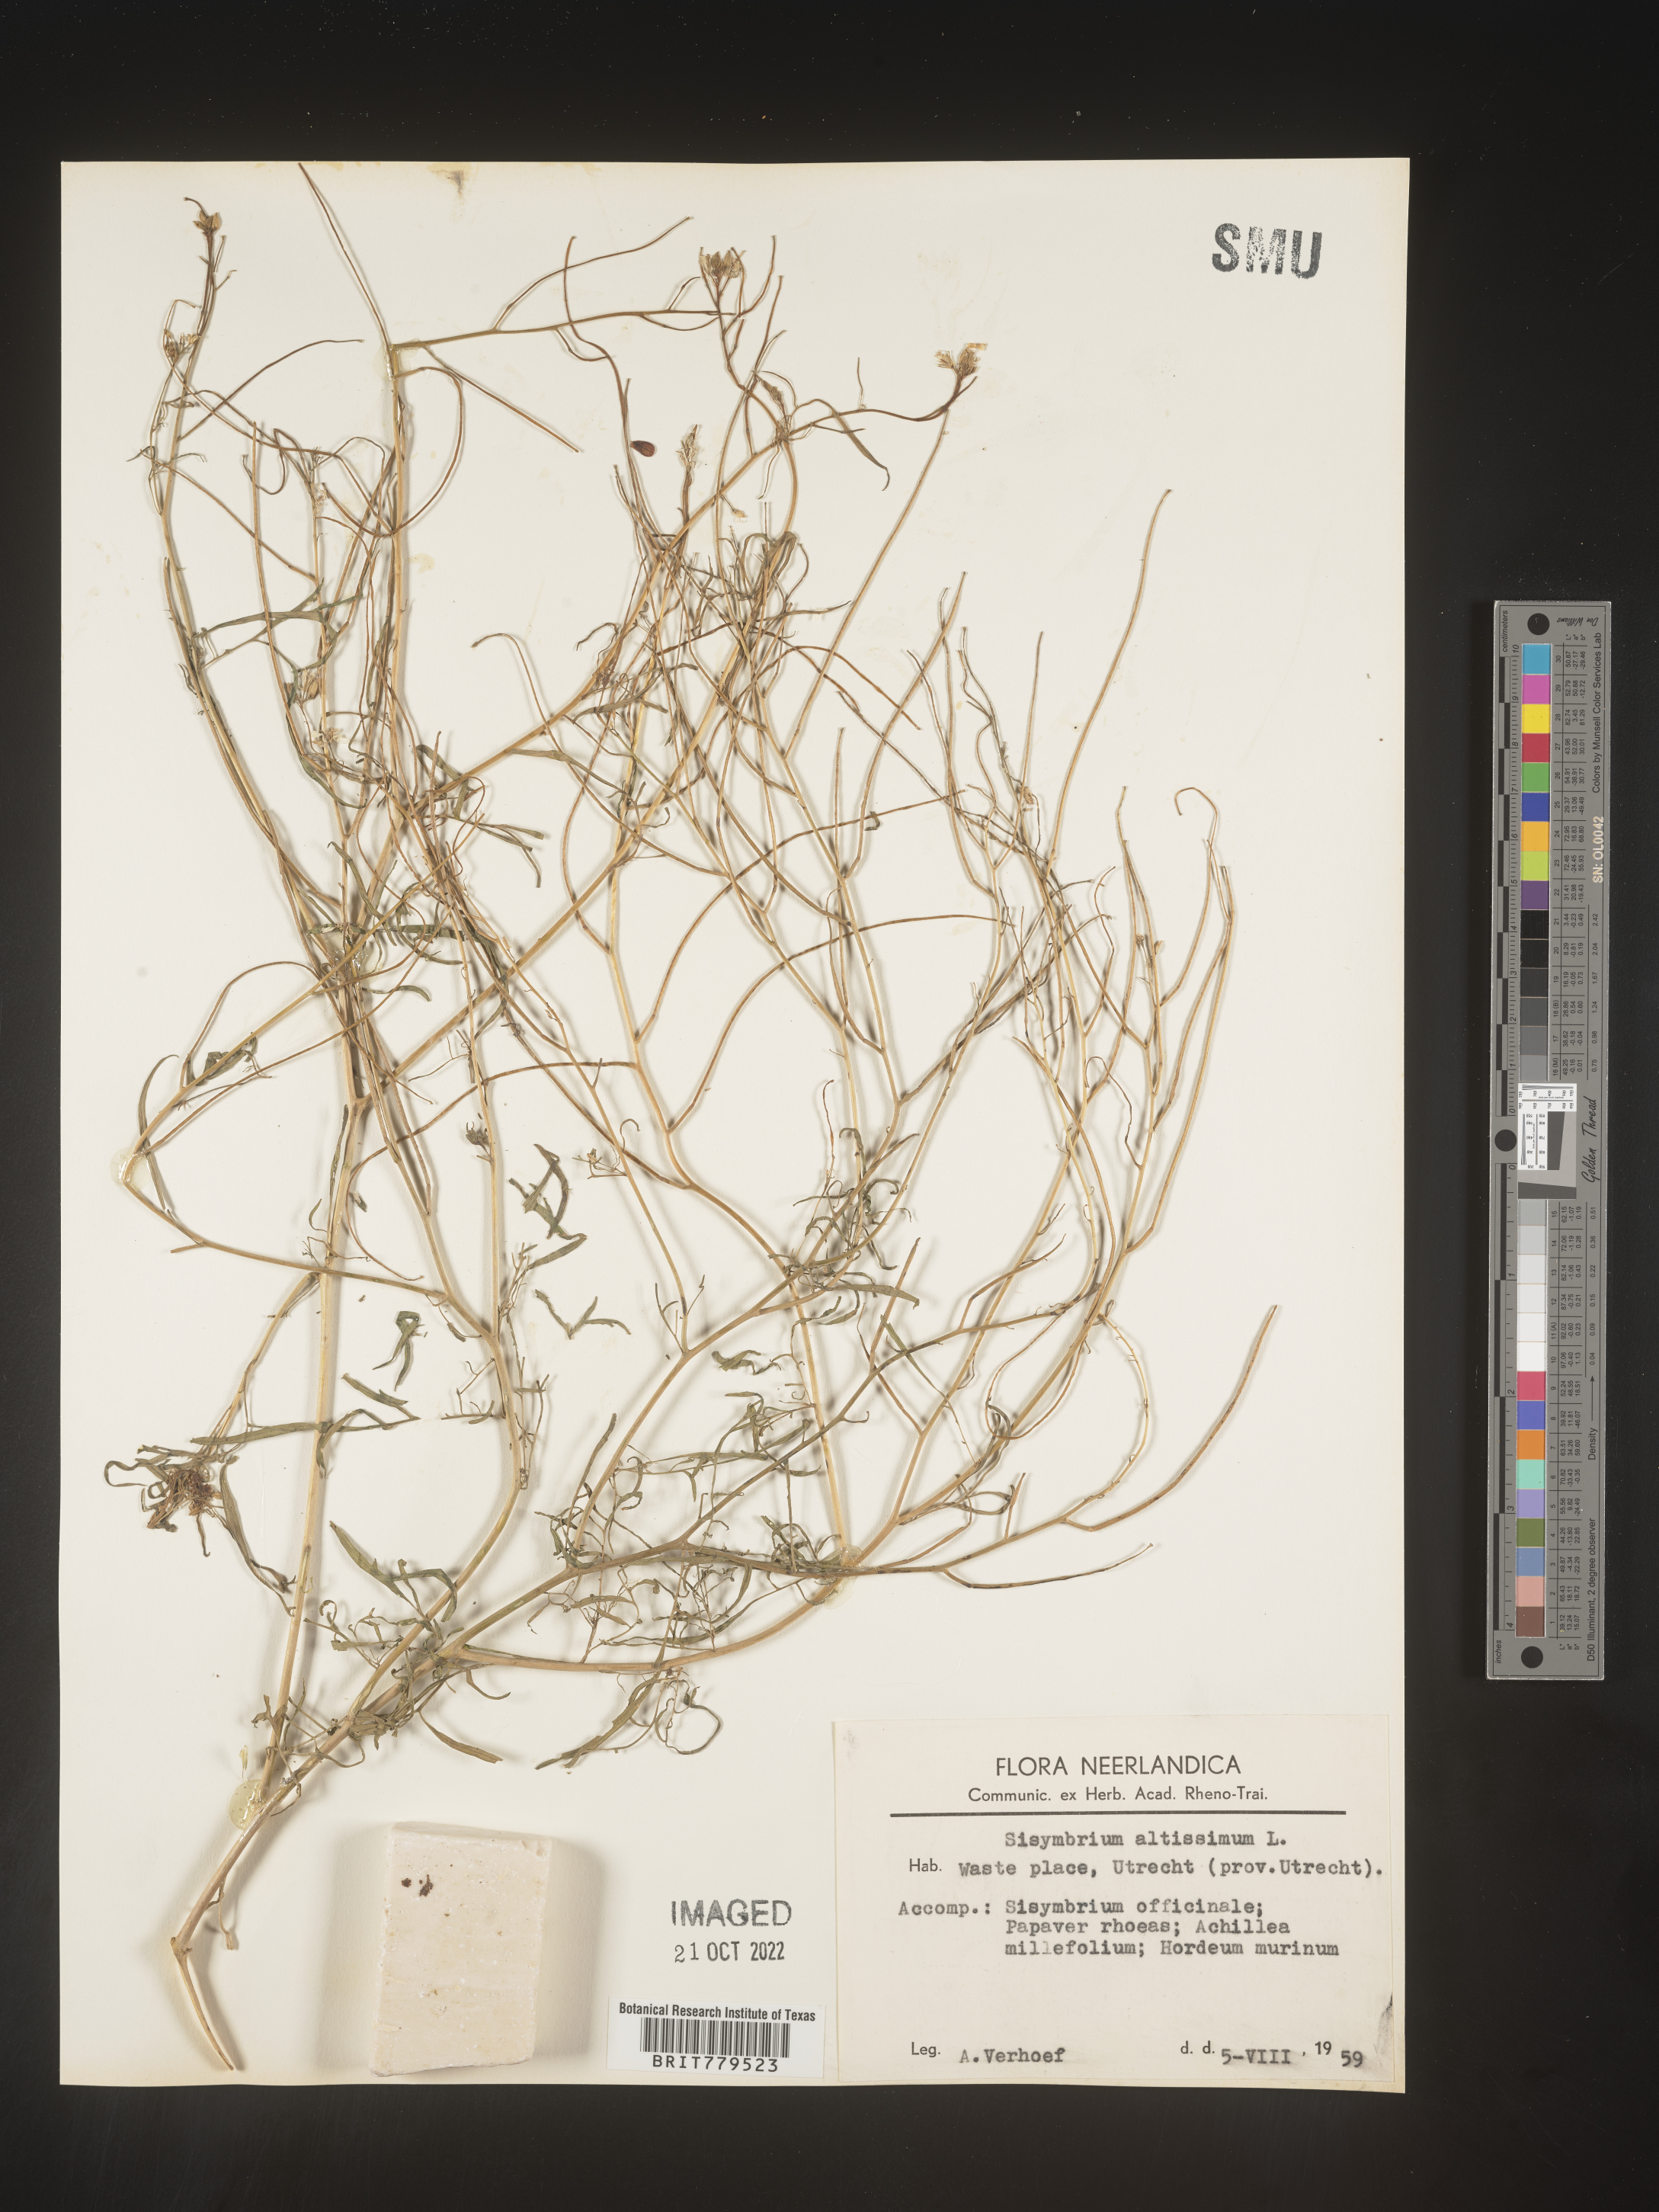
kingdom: Plantae
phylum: Tracheophyta
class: Magnoliopsida
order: Brassicales
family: Brassicaceae
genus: Sisymbrium
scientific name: Sisymbrium
